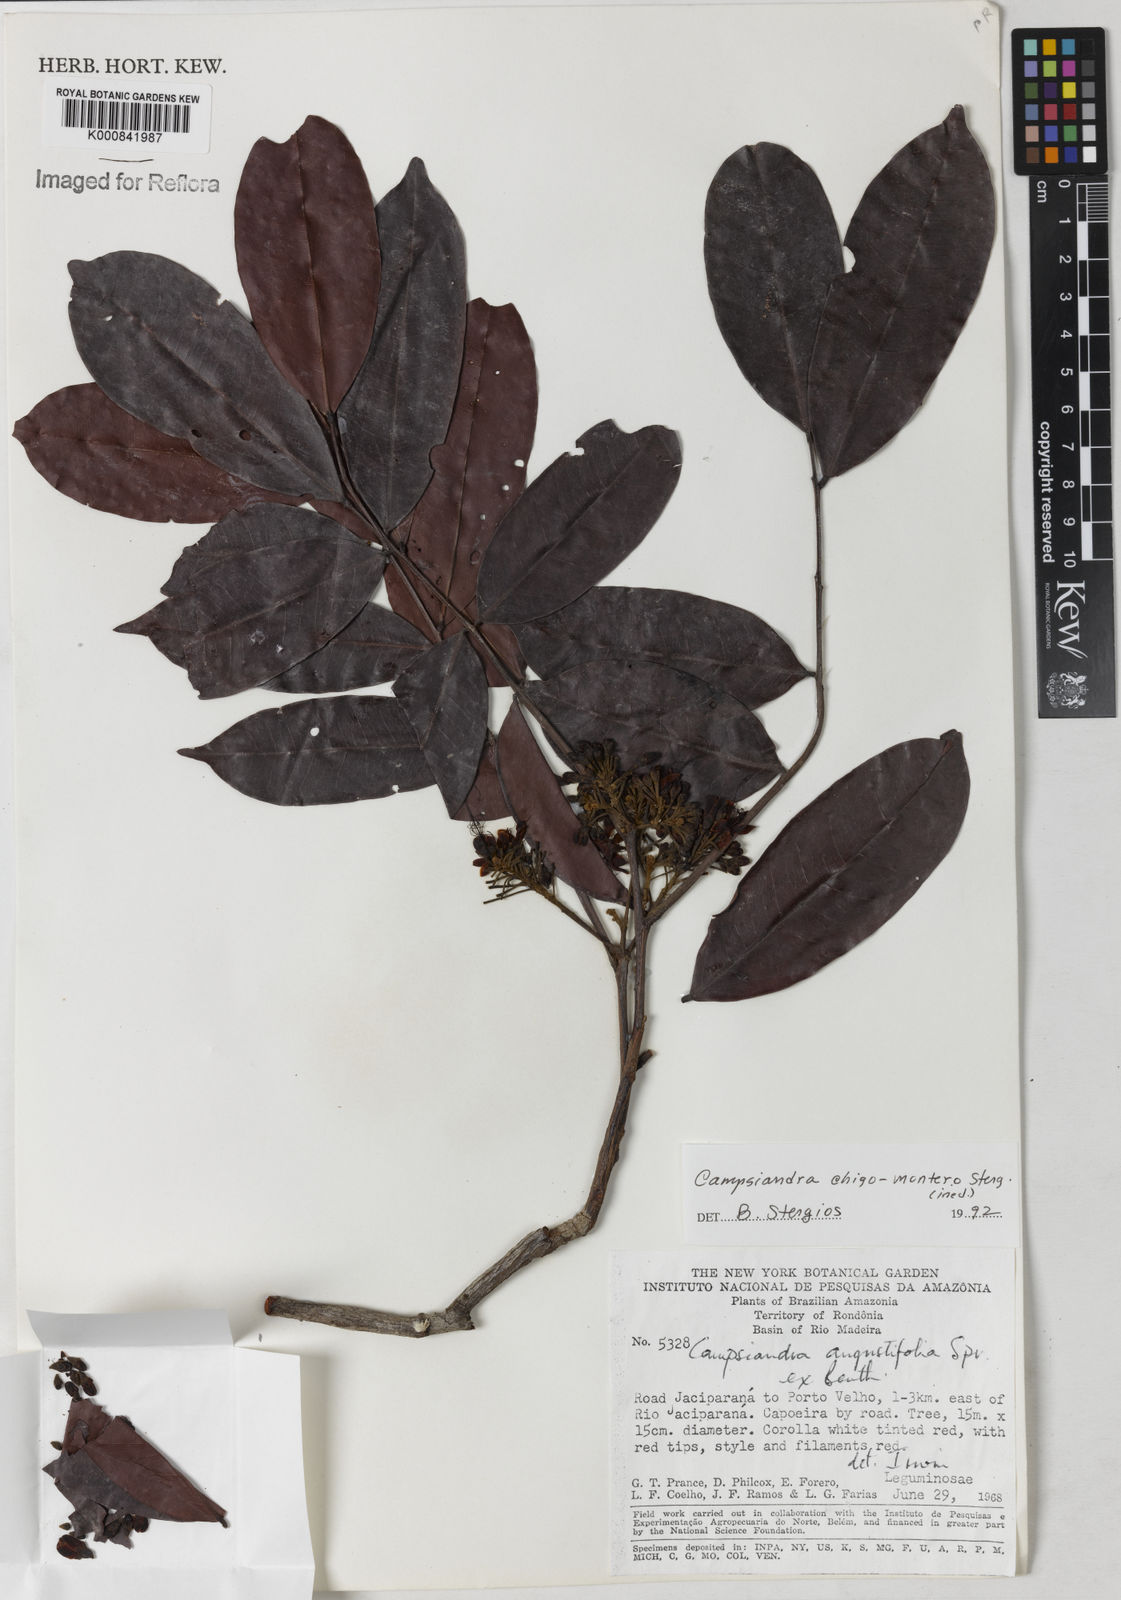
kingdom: Plantae
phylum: Tracheophyta
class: Magnoliopsida
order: Fabales
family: Fabaceae
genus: Campsiandra
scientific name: Campsiandra chigo-montero
